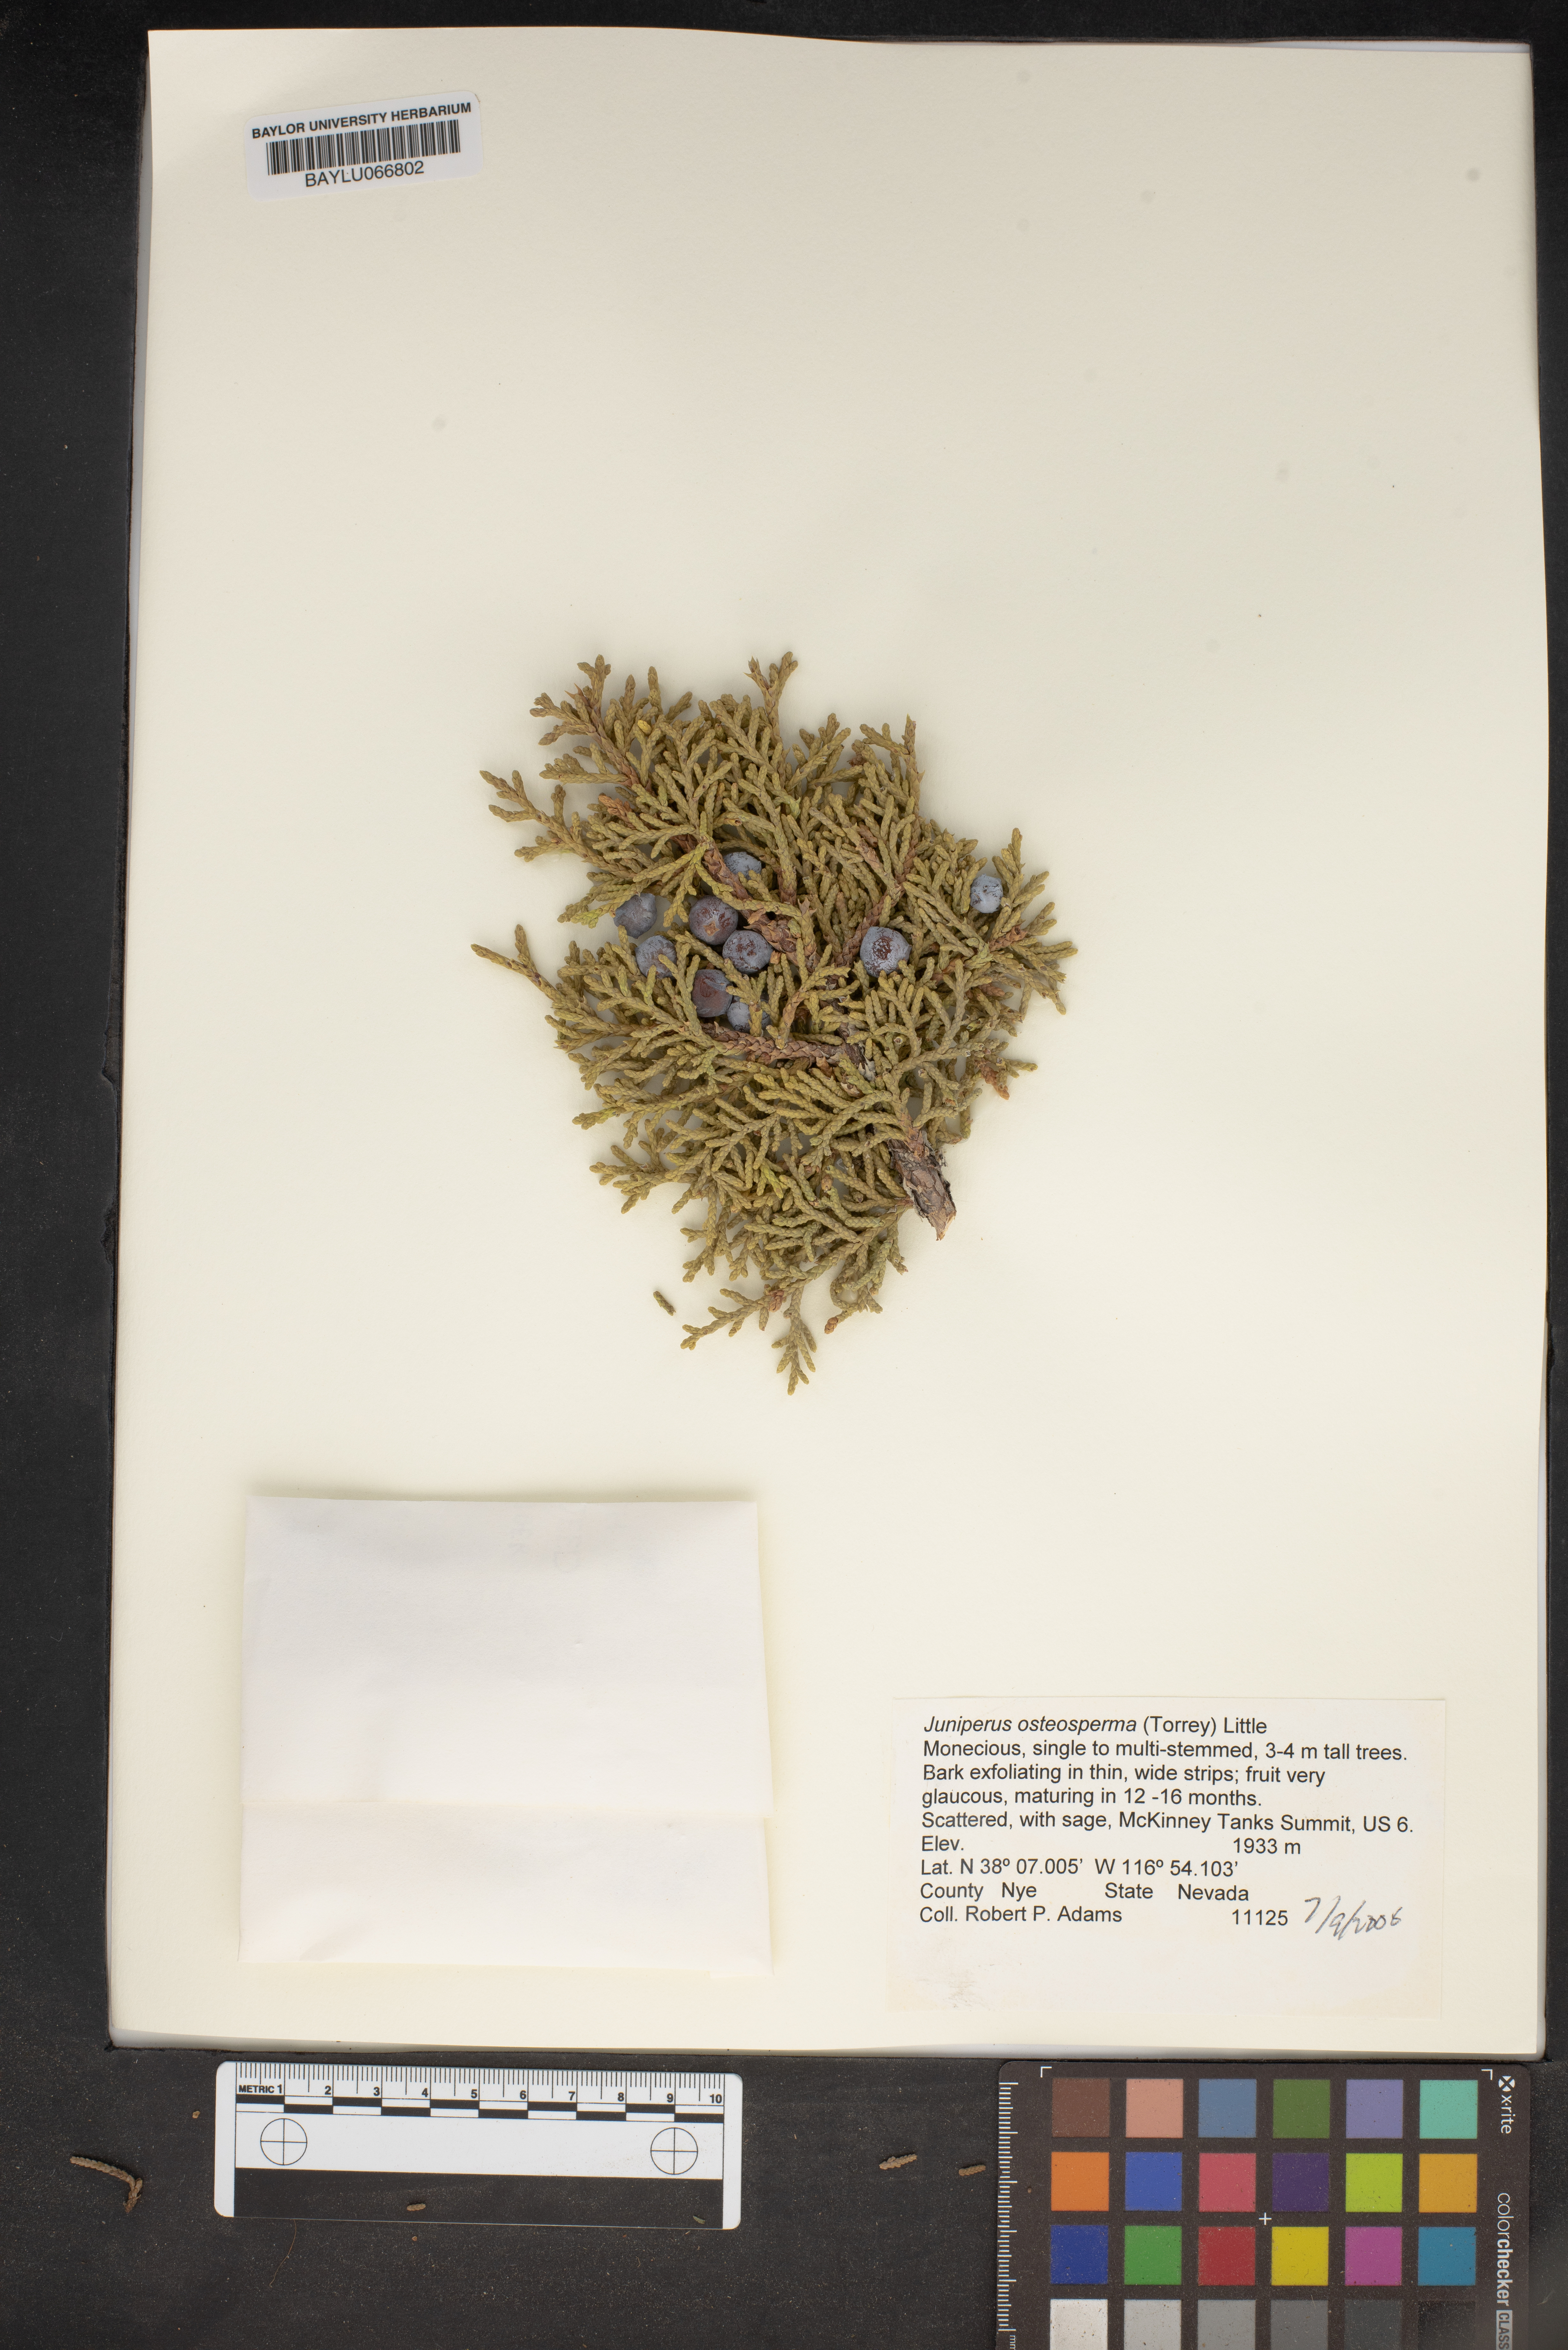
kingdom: Plantae
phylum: Tracheophyta
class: Pinopsida
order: Pinales
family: Cupressaceae
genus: Juniperus
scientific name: Juniperus osteosperma
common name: Utah juniper
